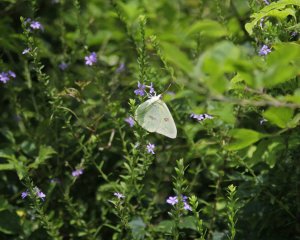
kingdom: Animalia
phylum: Arthropoda
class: Insecta
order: Lepidoptera
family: Pieridae
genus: Phoebis
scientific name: Phoebis sennae
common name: Cloudless Sulphur
